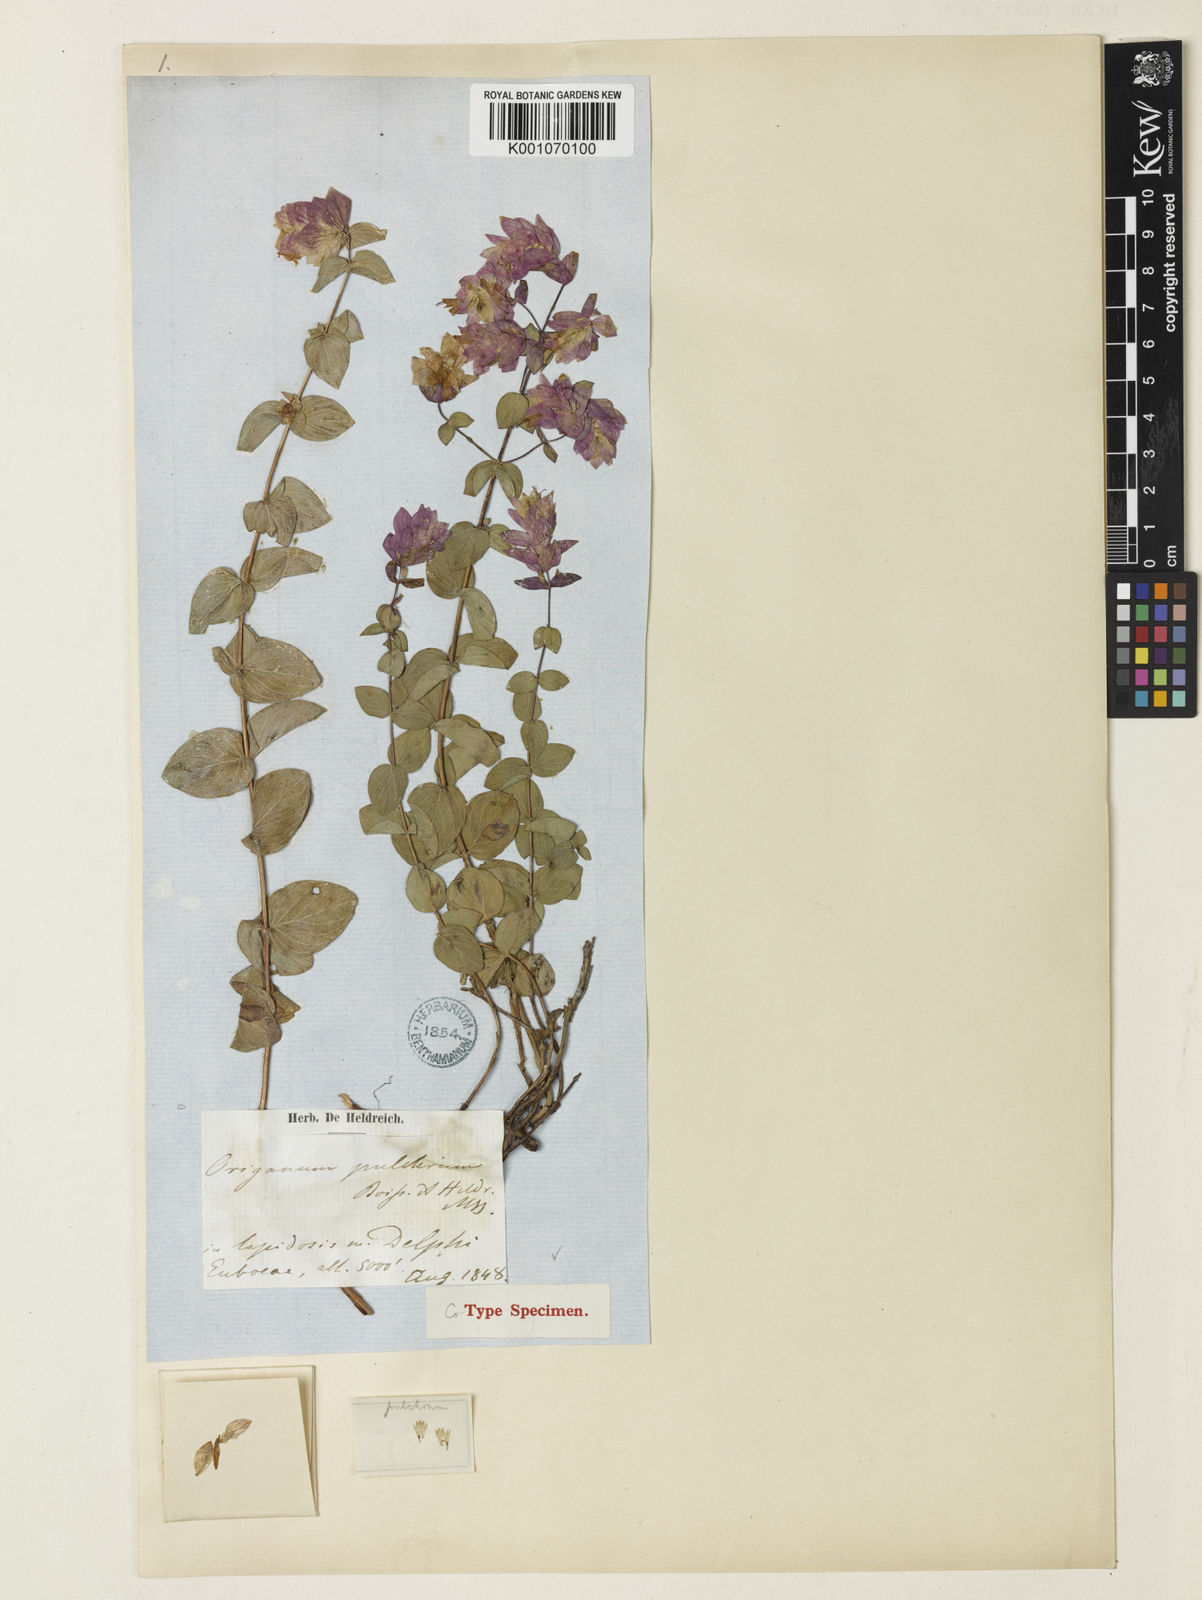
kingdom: Plantae
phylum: Tracheophyta
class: Magnoliopsida
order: Lamiales
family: Lamiaceae
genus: Origanum
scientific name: Origanum scabrum
